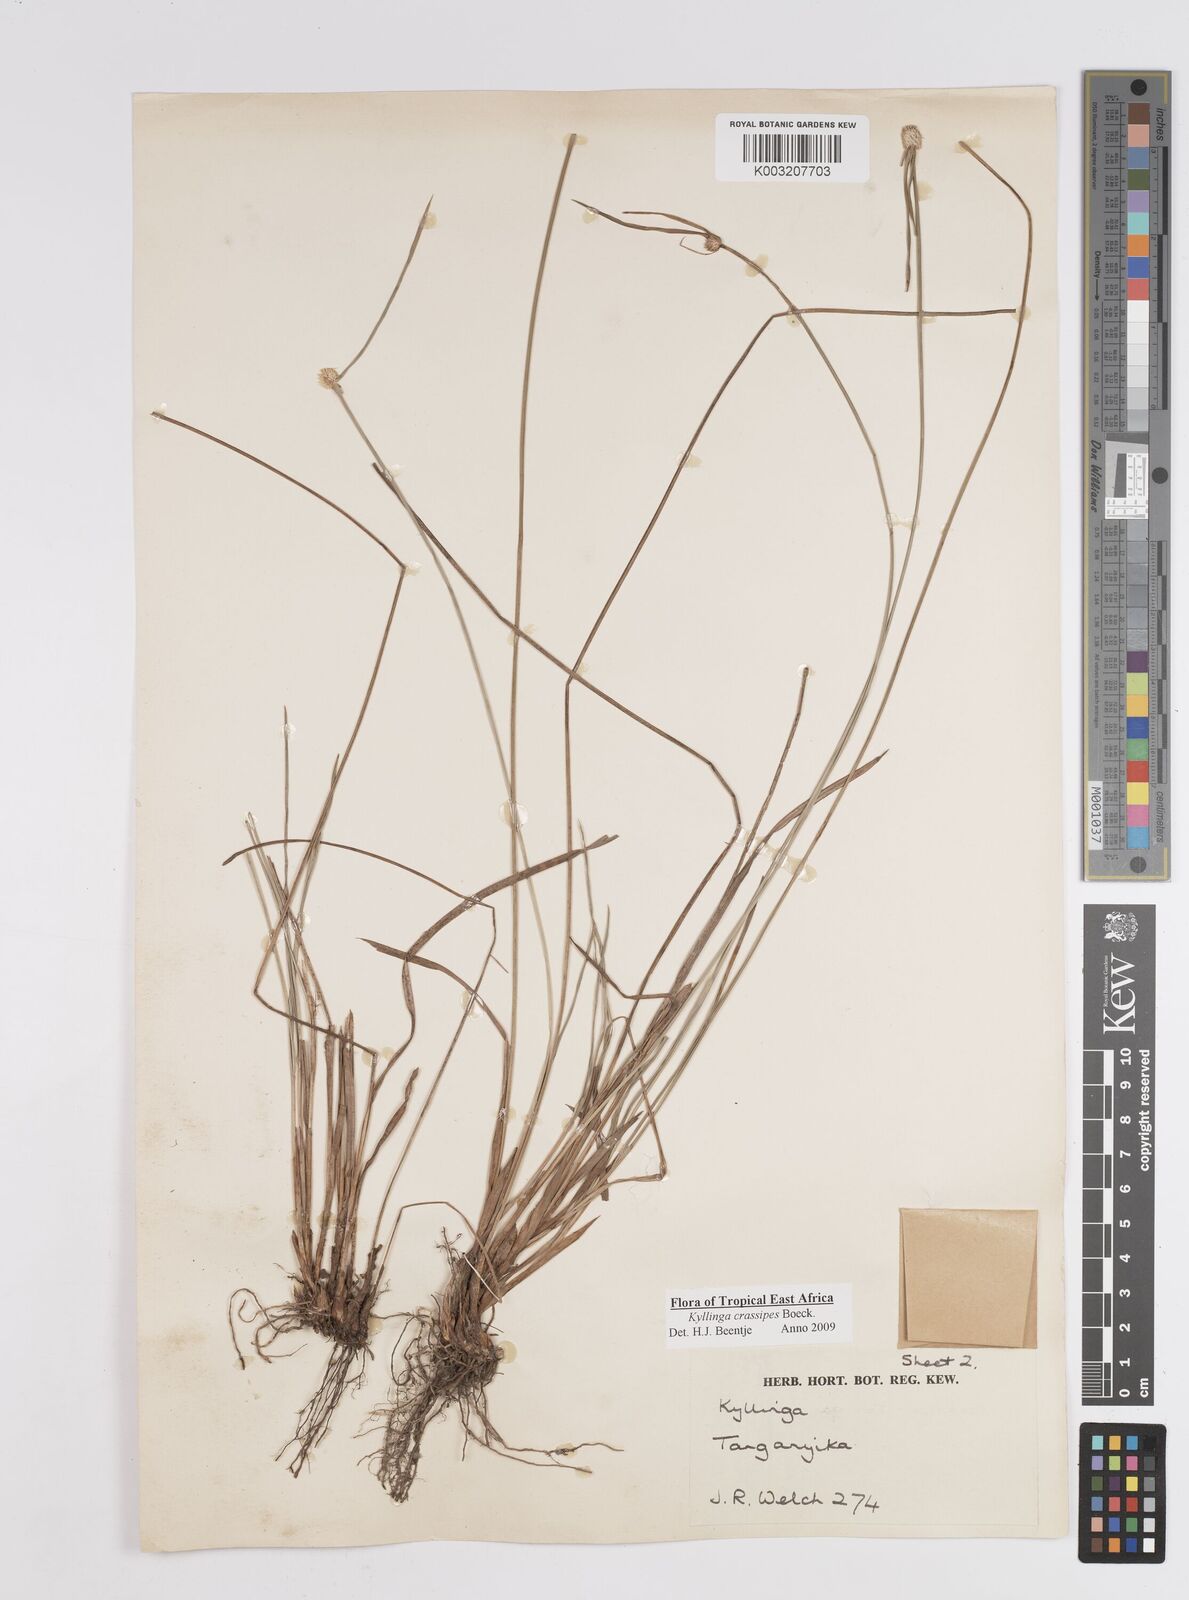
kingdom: Plantae
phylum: Tracheophyta
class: Liliopsida
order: Poales
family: Cyperaceae
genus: Cyperus
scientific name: Cyperus crassipes
